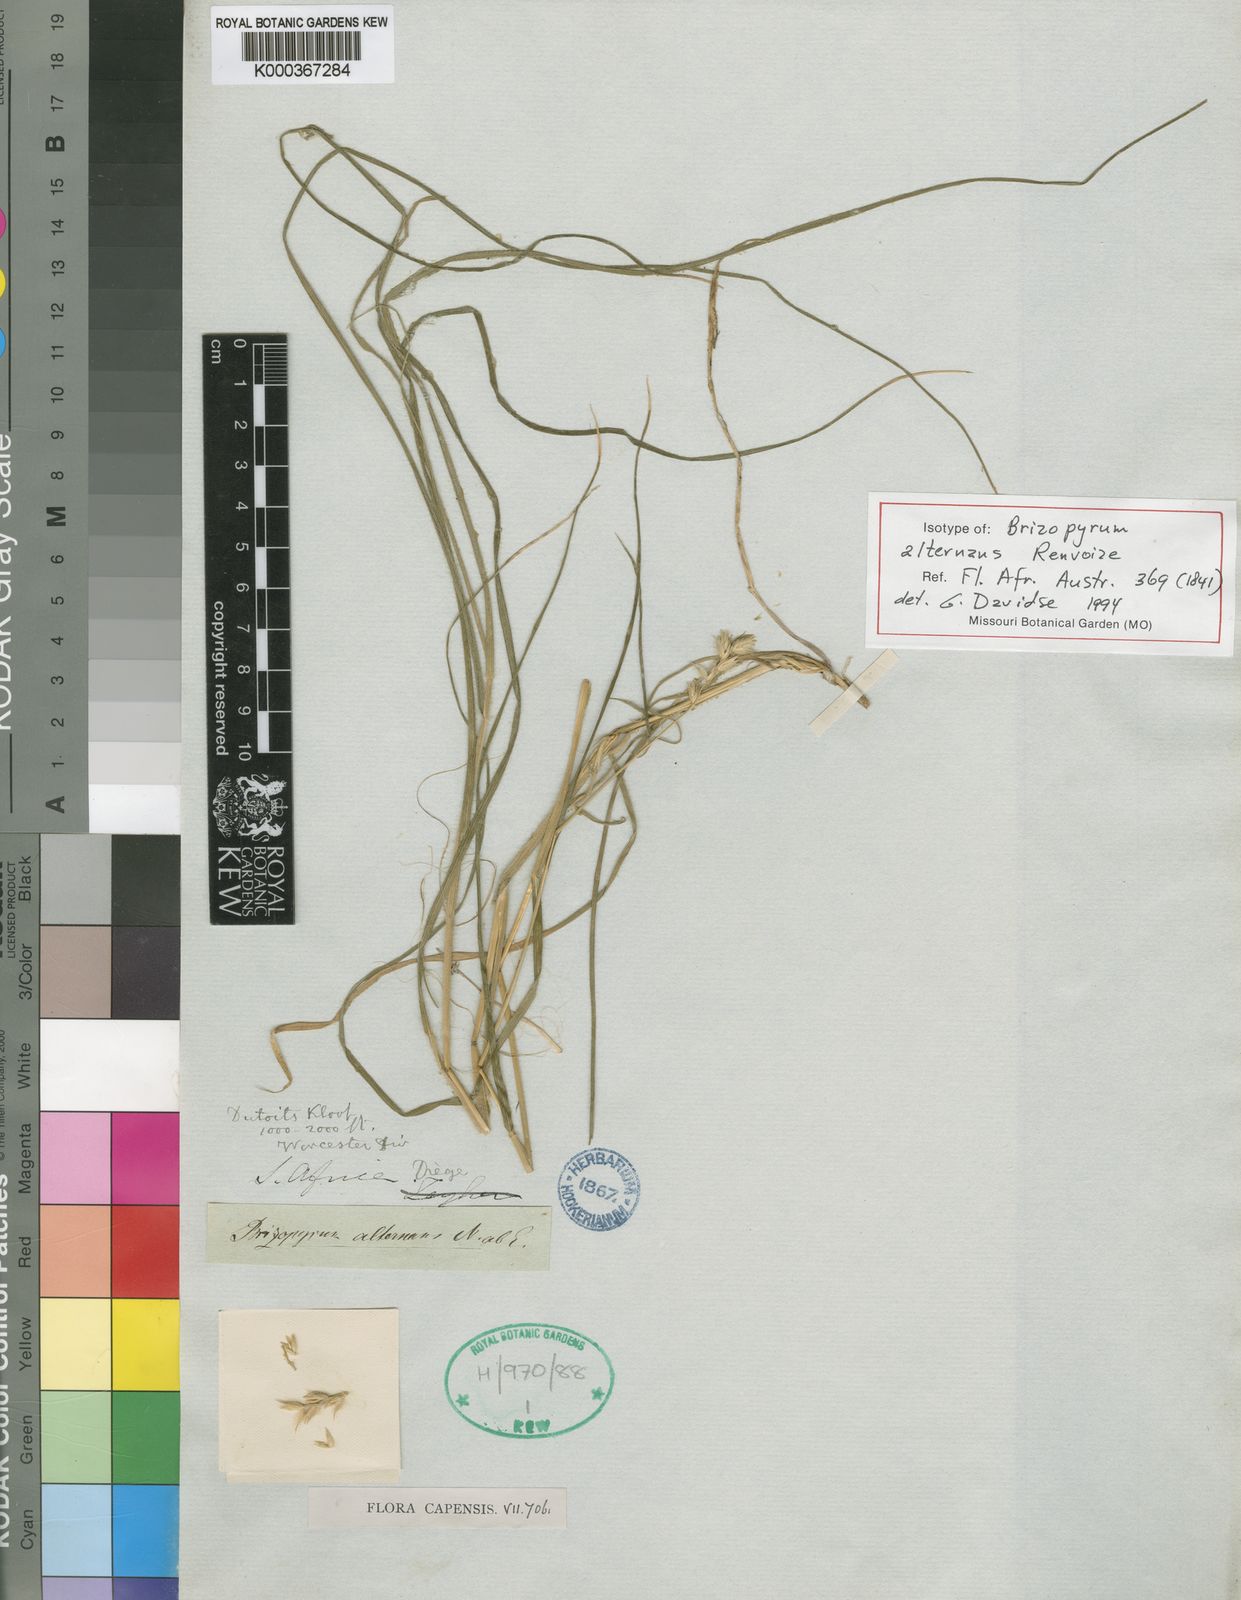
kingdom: Plantae
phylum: Tracheophyta
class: Liliopsida
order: Poales
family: Poaceae
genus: Tribolium
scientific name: Tribolium alternans
